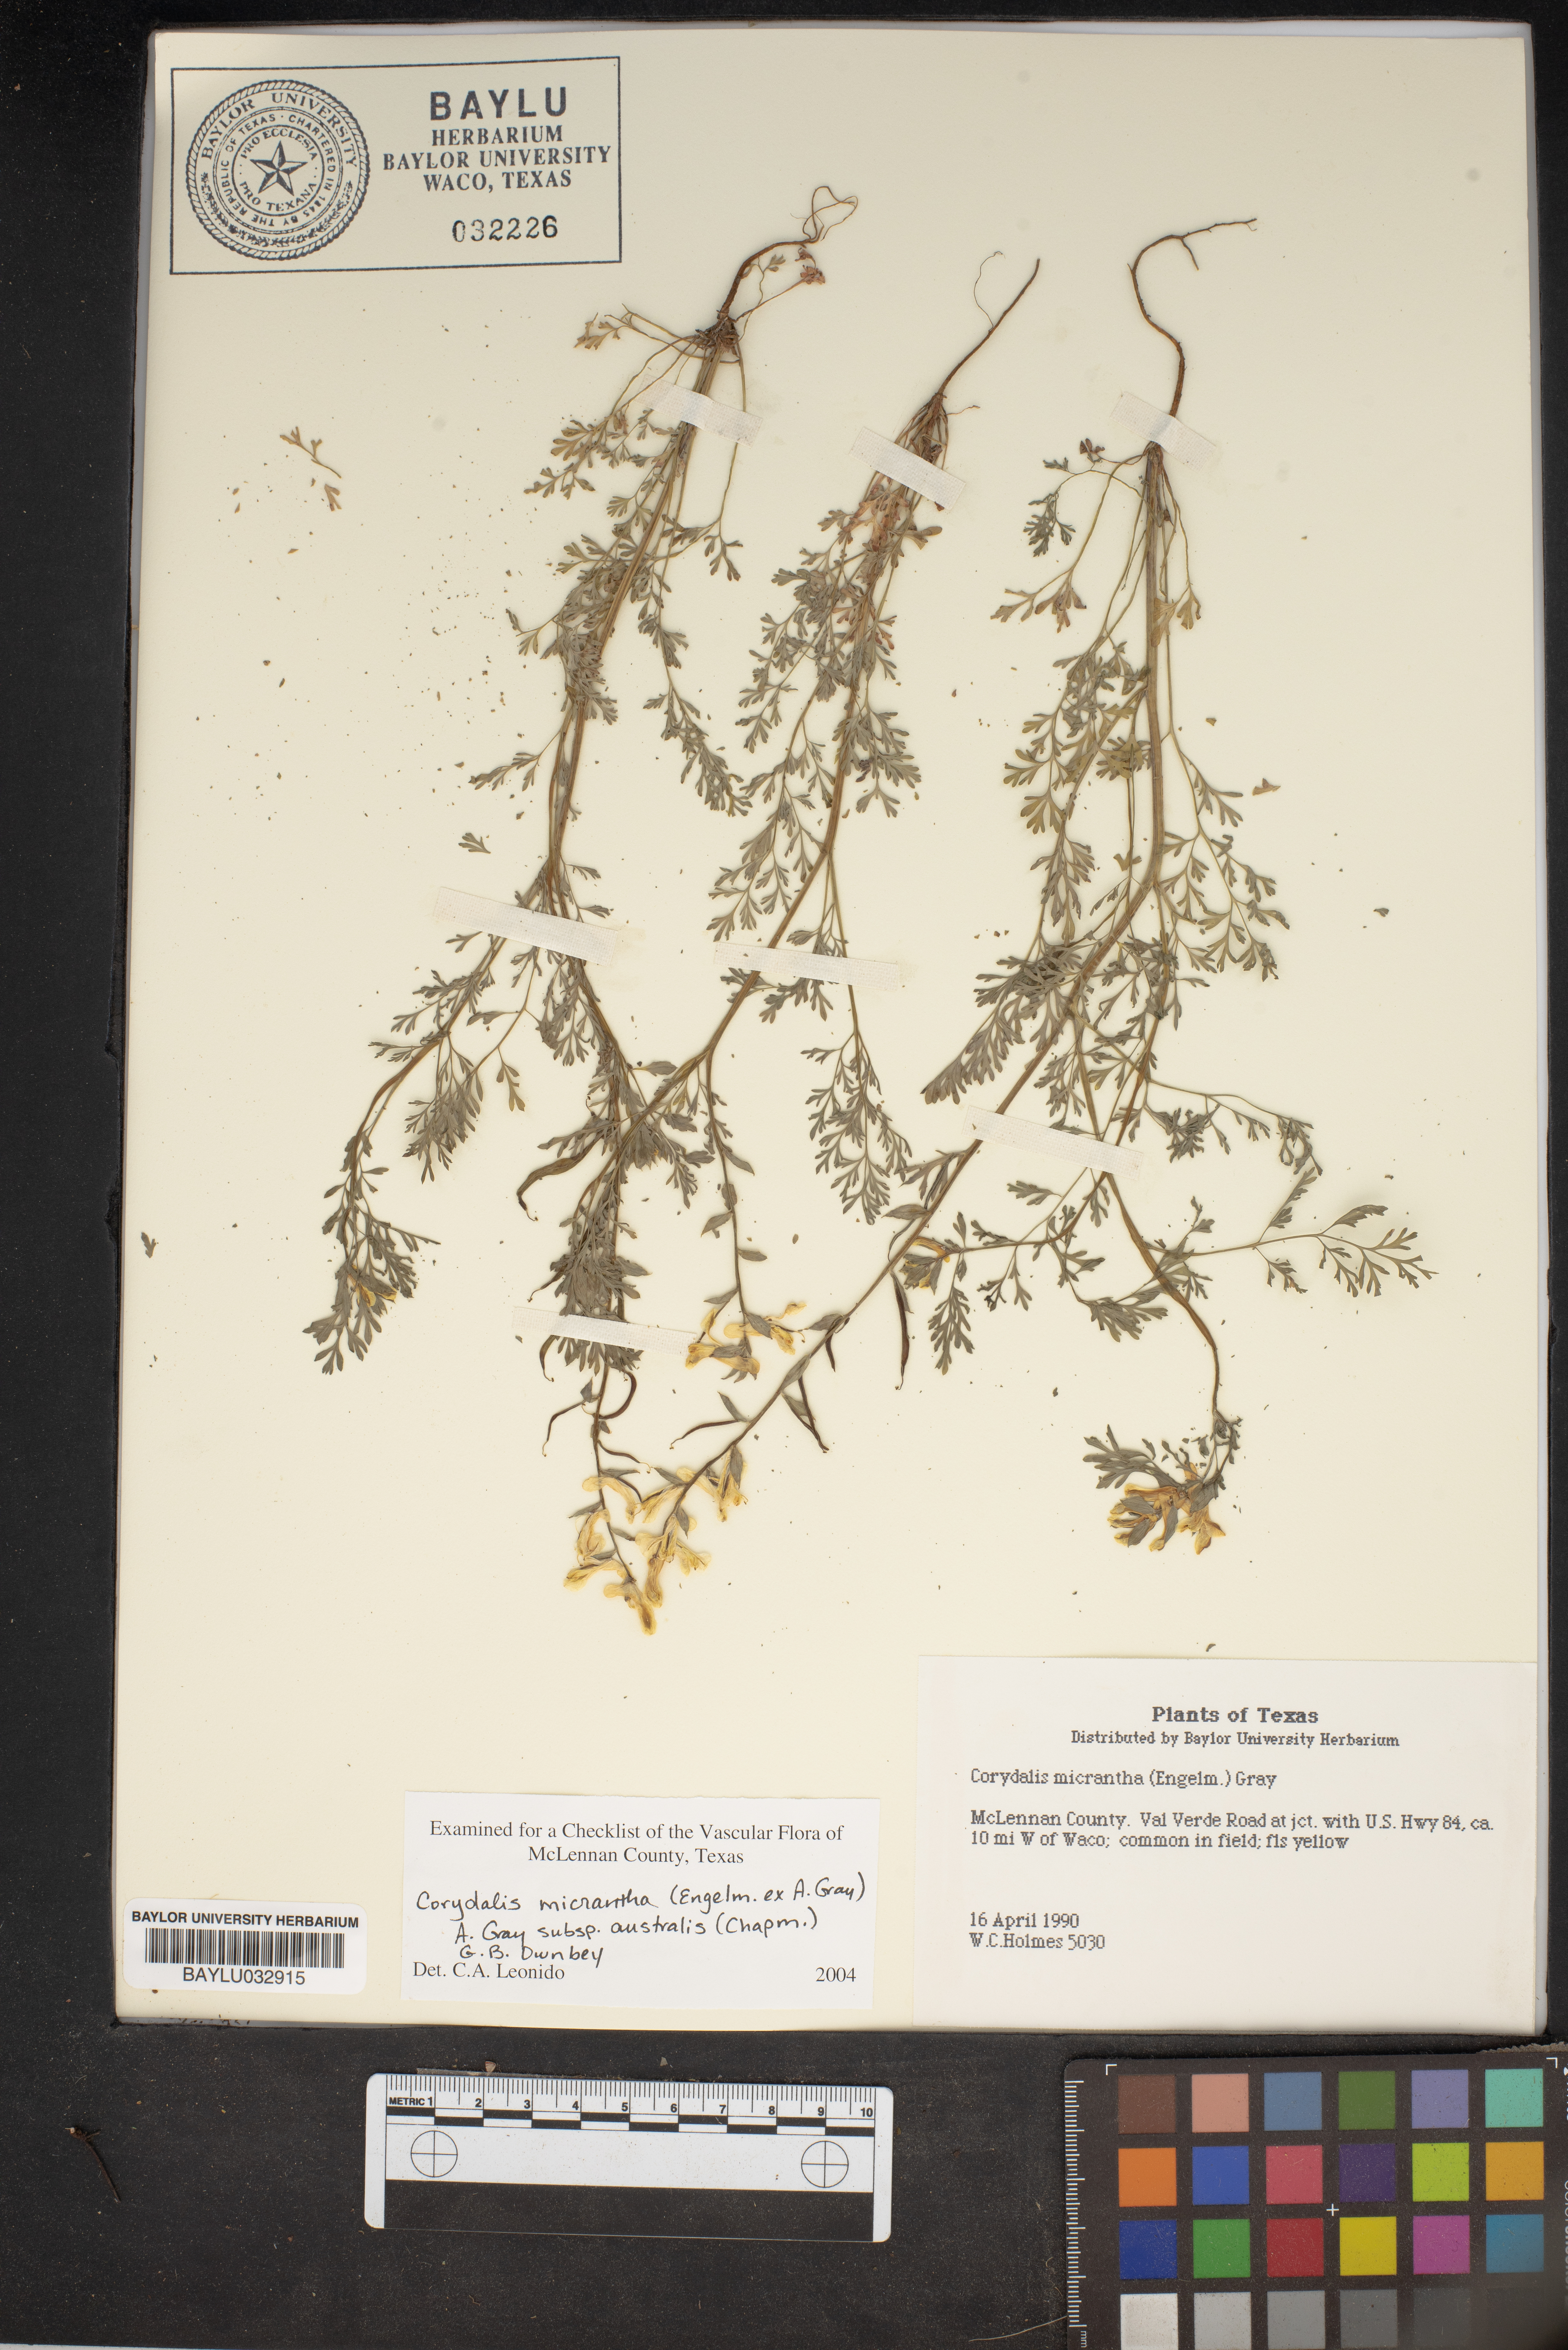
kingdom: Plantae
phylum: Tracheophyta
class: Magnoliopsida
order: Ranunculales
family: Papaveraceae
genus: Corydalis
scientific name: Corydalis micrantha
